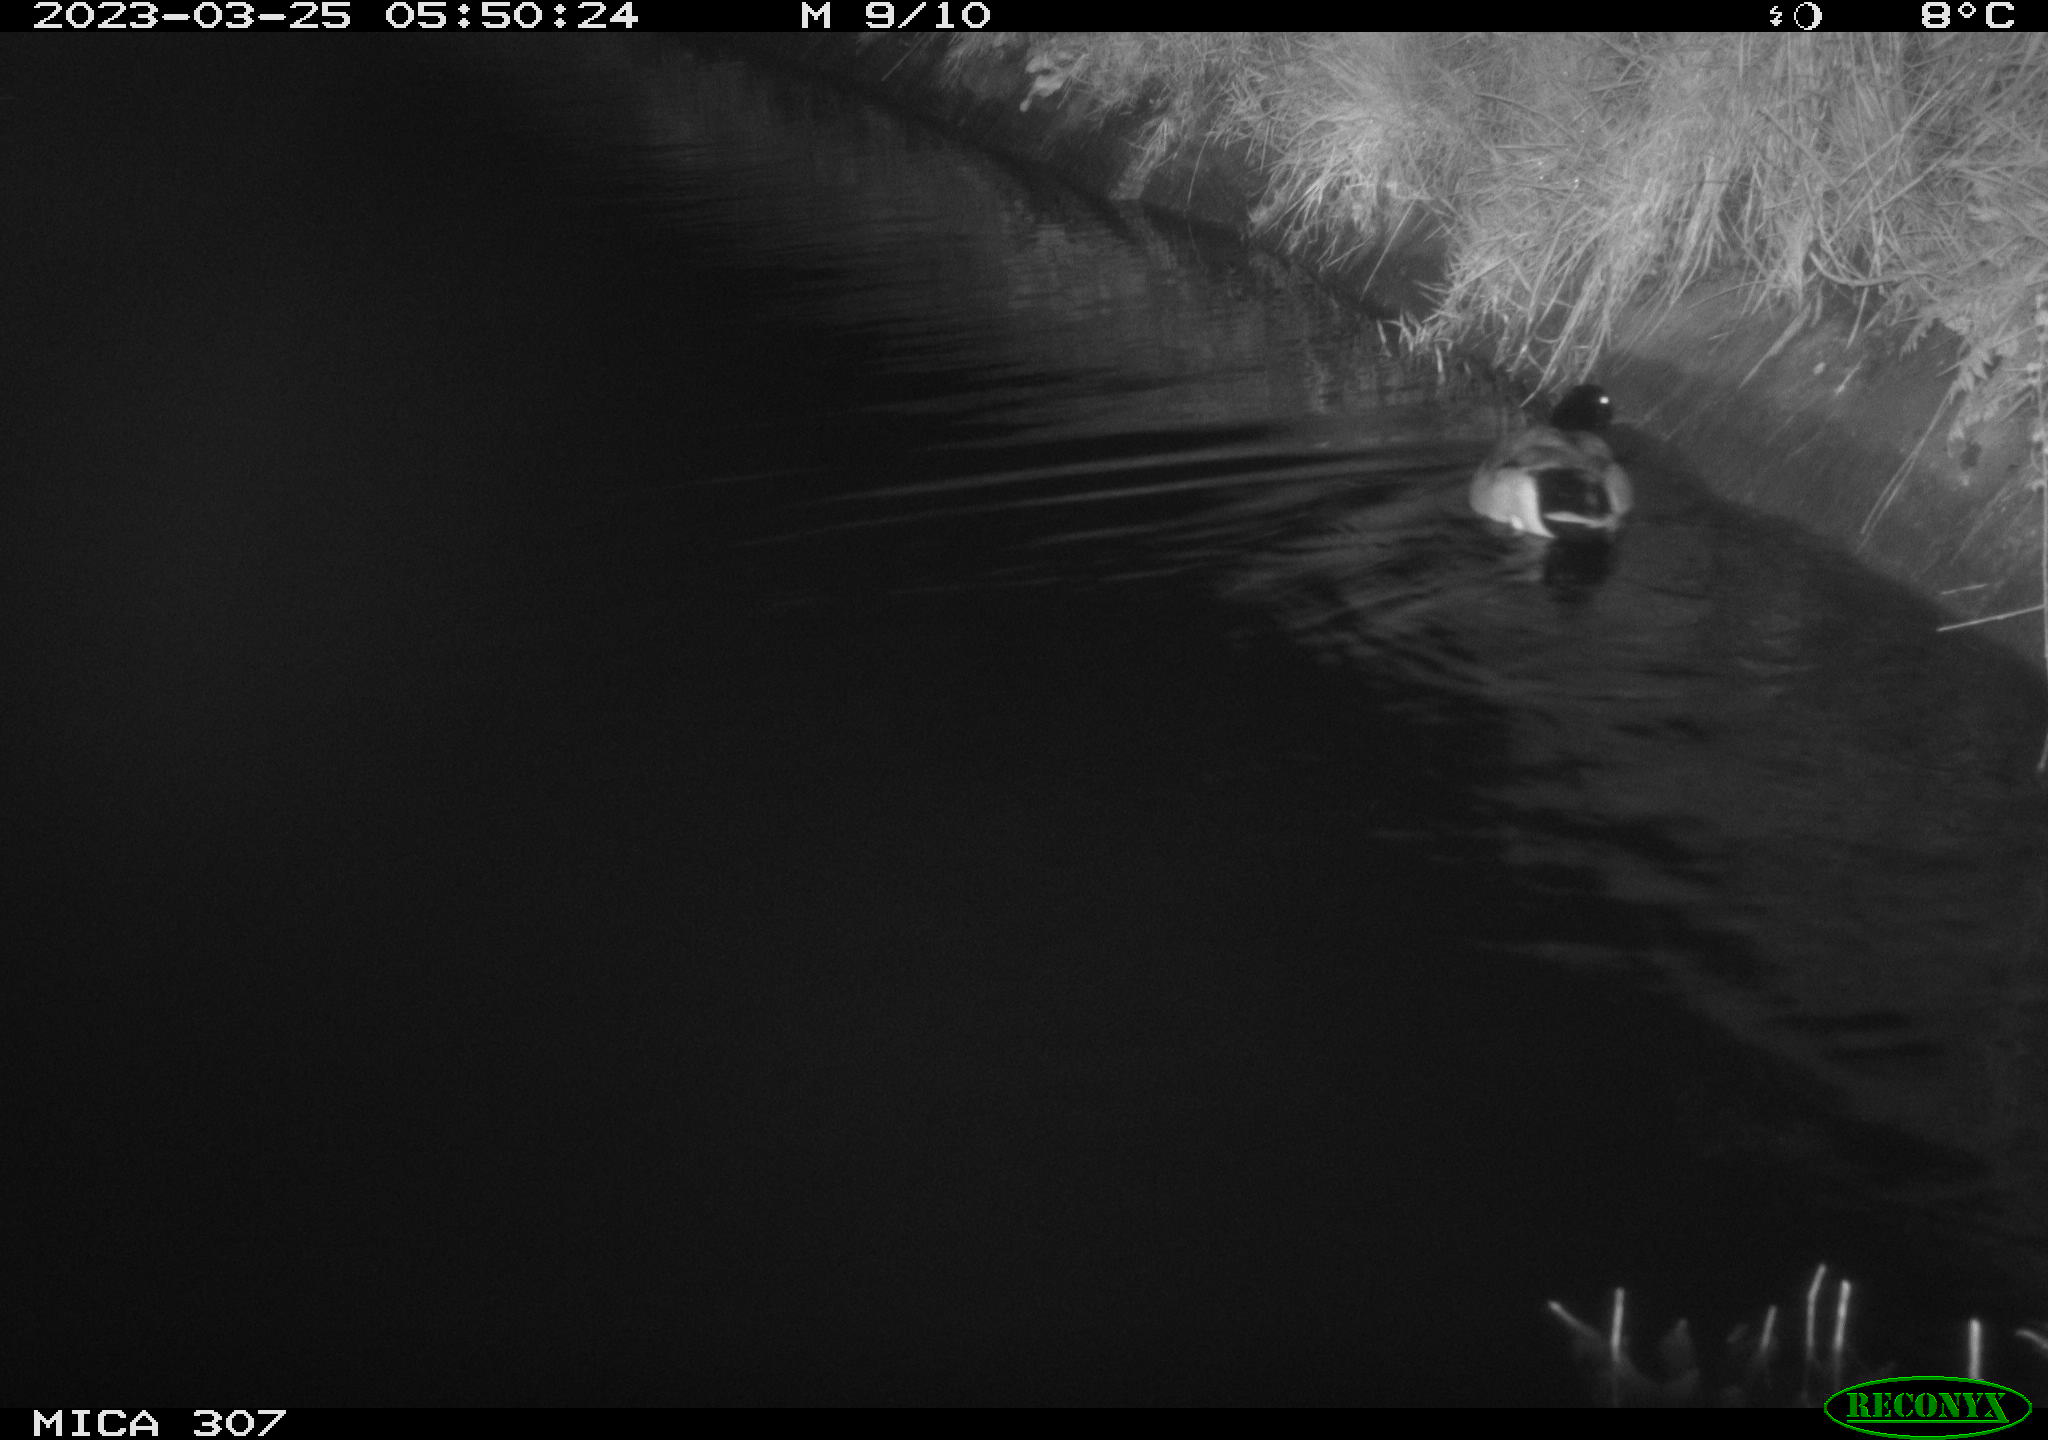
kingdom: Animalia
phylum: Chordata
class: Aves
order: Anseriformes
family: Anatidae
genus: Anas
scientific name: Anas
